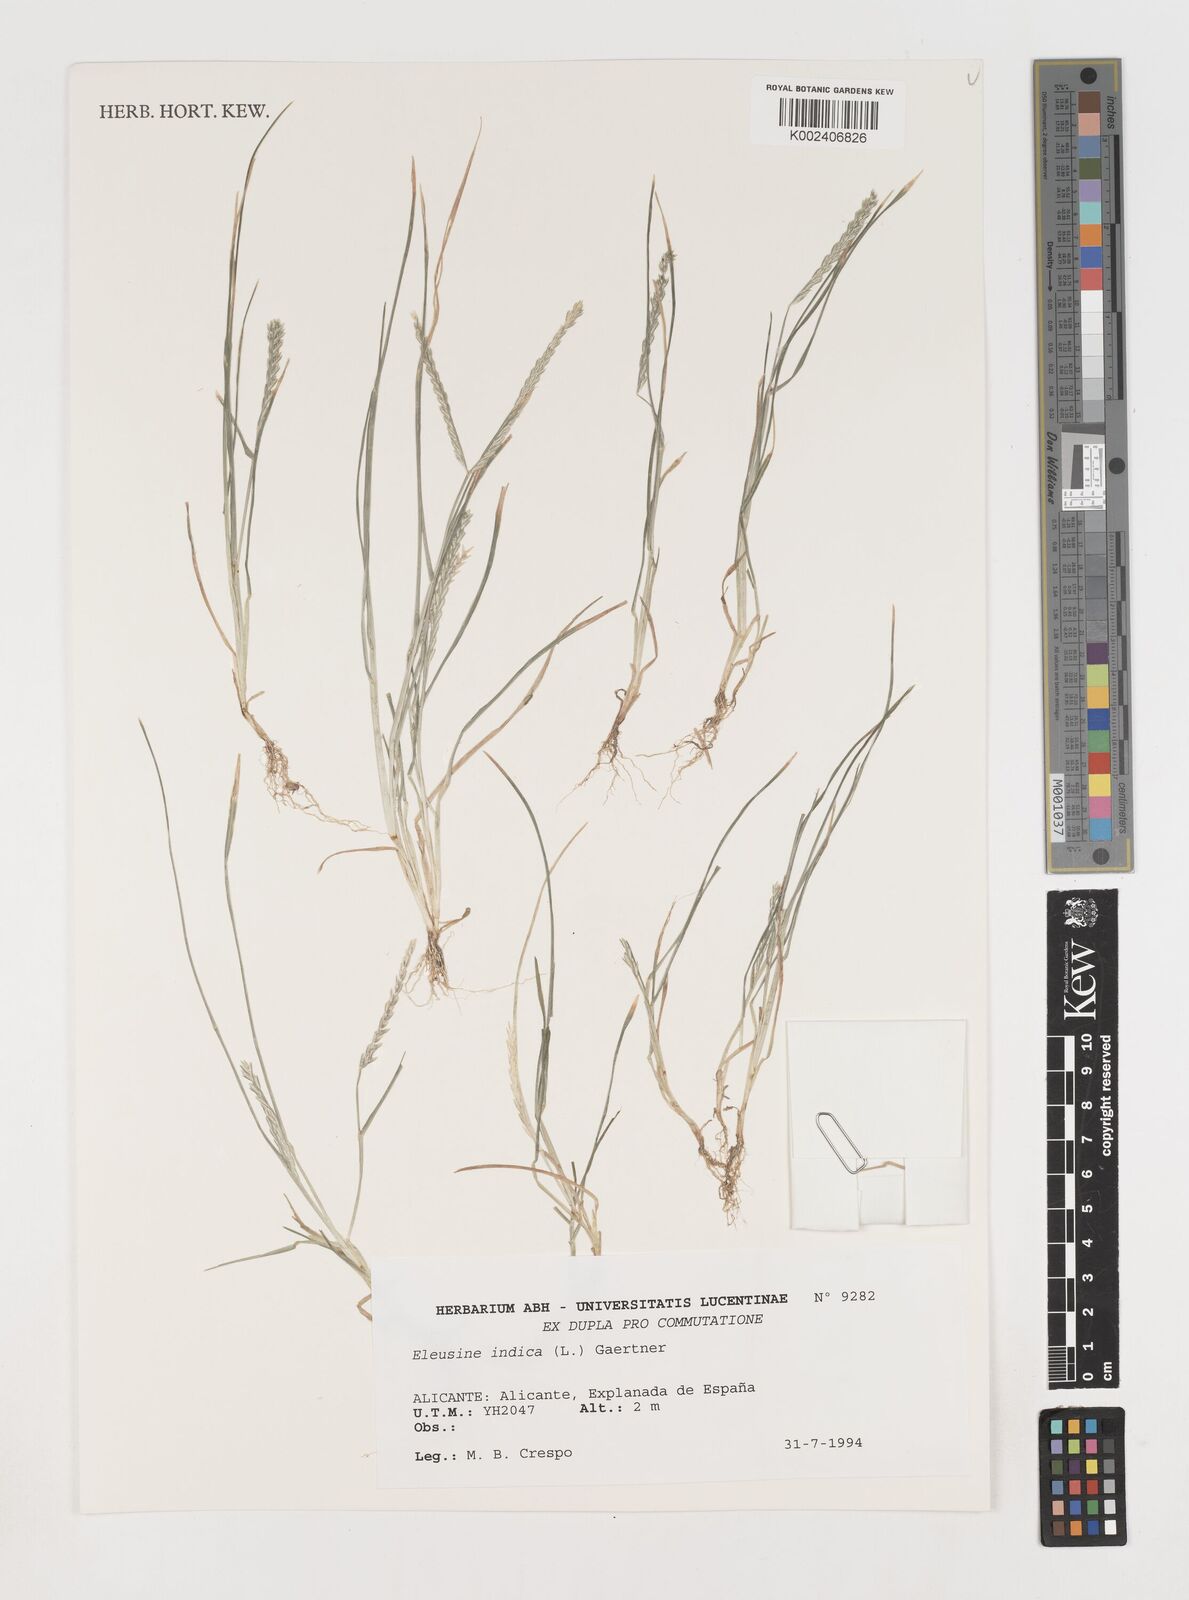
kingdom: Plantae
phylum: Tracheophyta
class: Liliopsida
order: Poales
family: Poaceae
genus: Eleusine
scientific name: Eleusine indica
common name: Yard-grass
